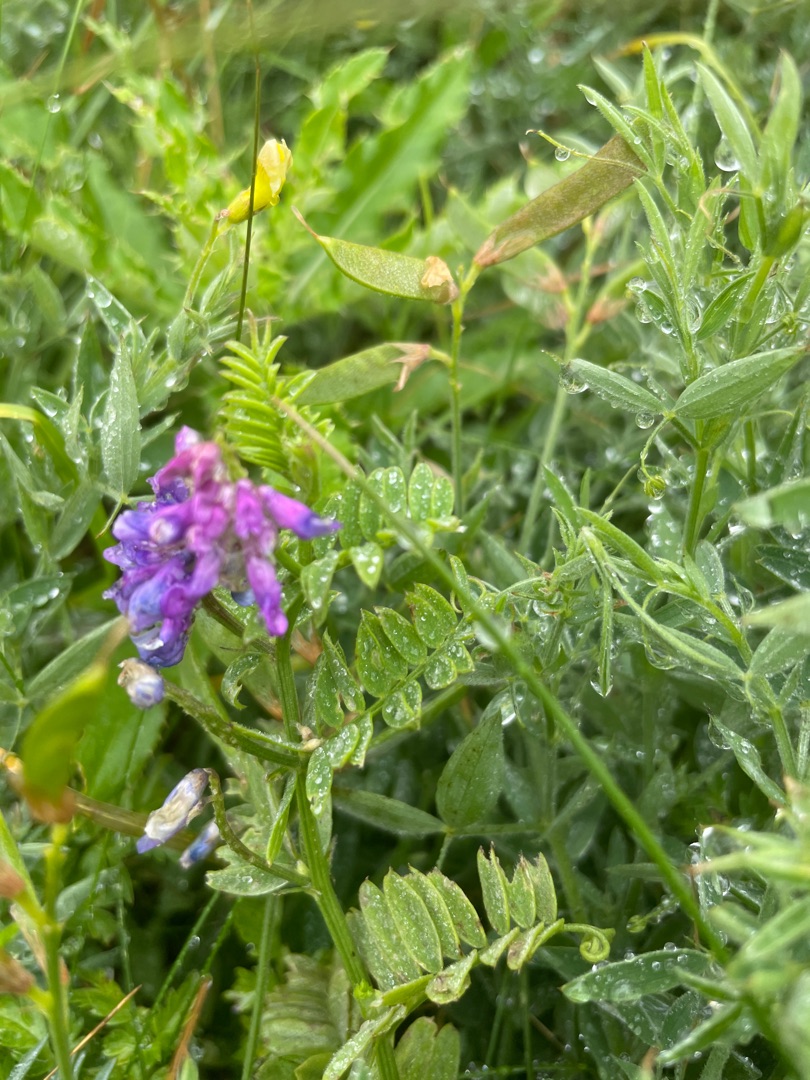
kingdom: Plantae
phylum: Tracheophyta
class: Magnoliopsida
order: Fabales
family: Fabaceae
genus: Vicia
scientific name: Vicia cracca
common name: Muse-vikke
